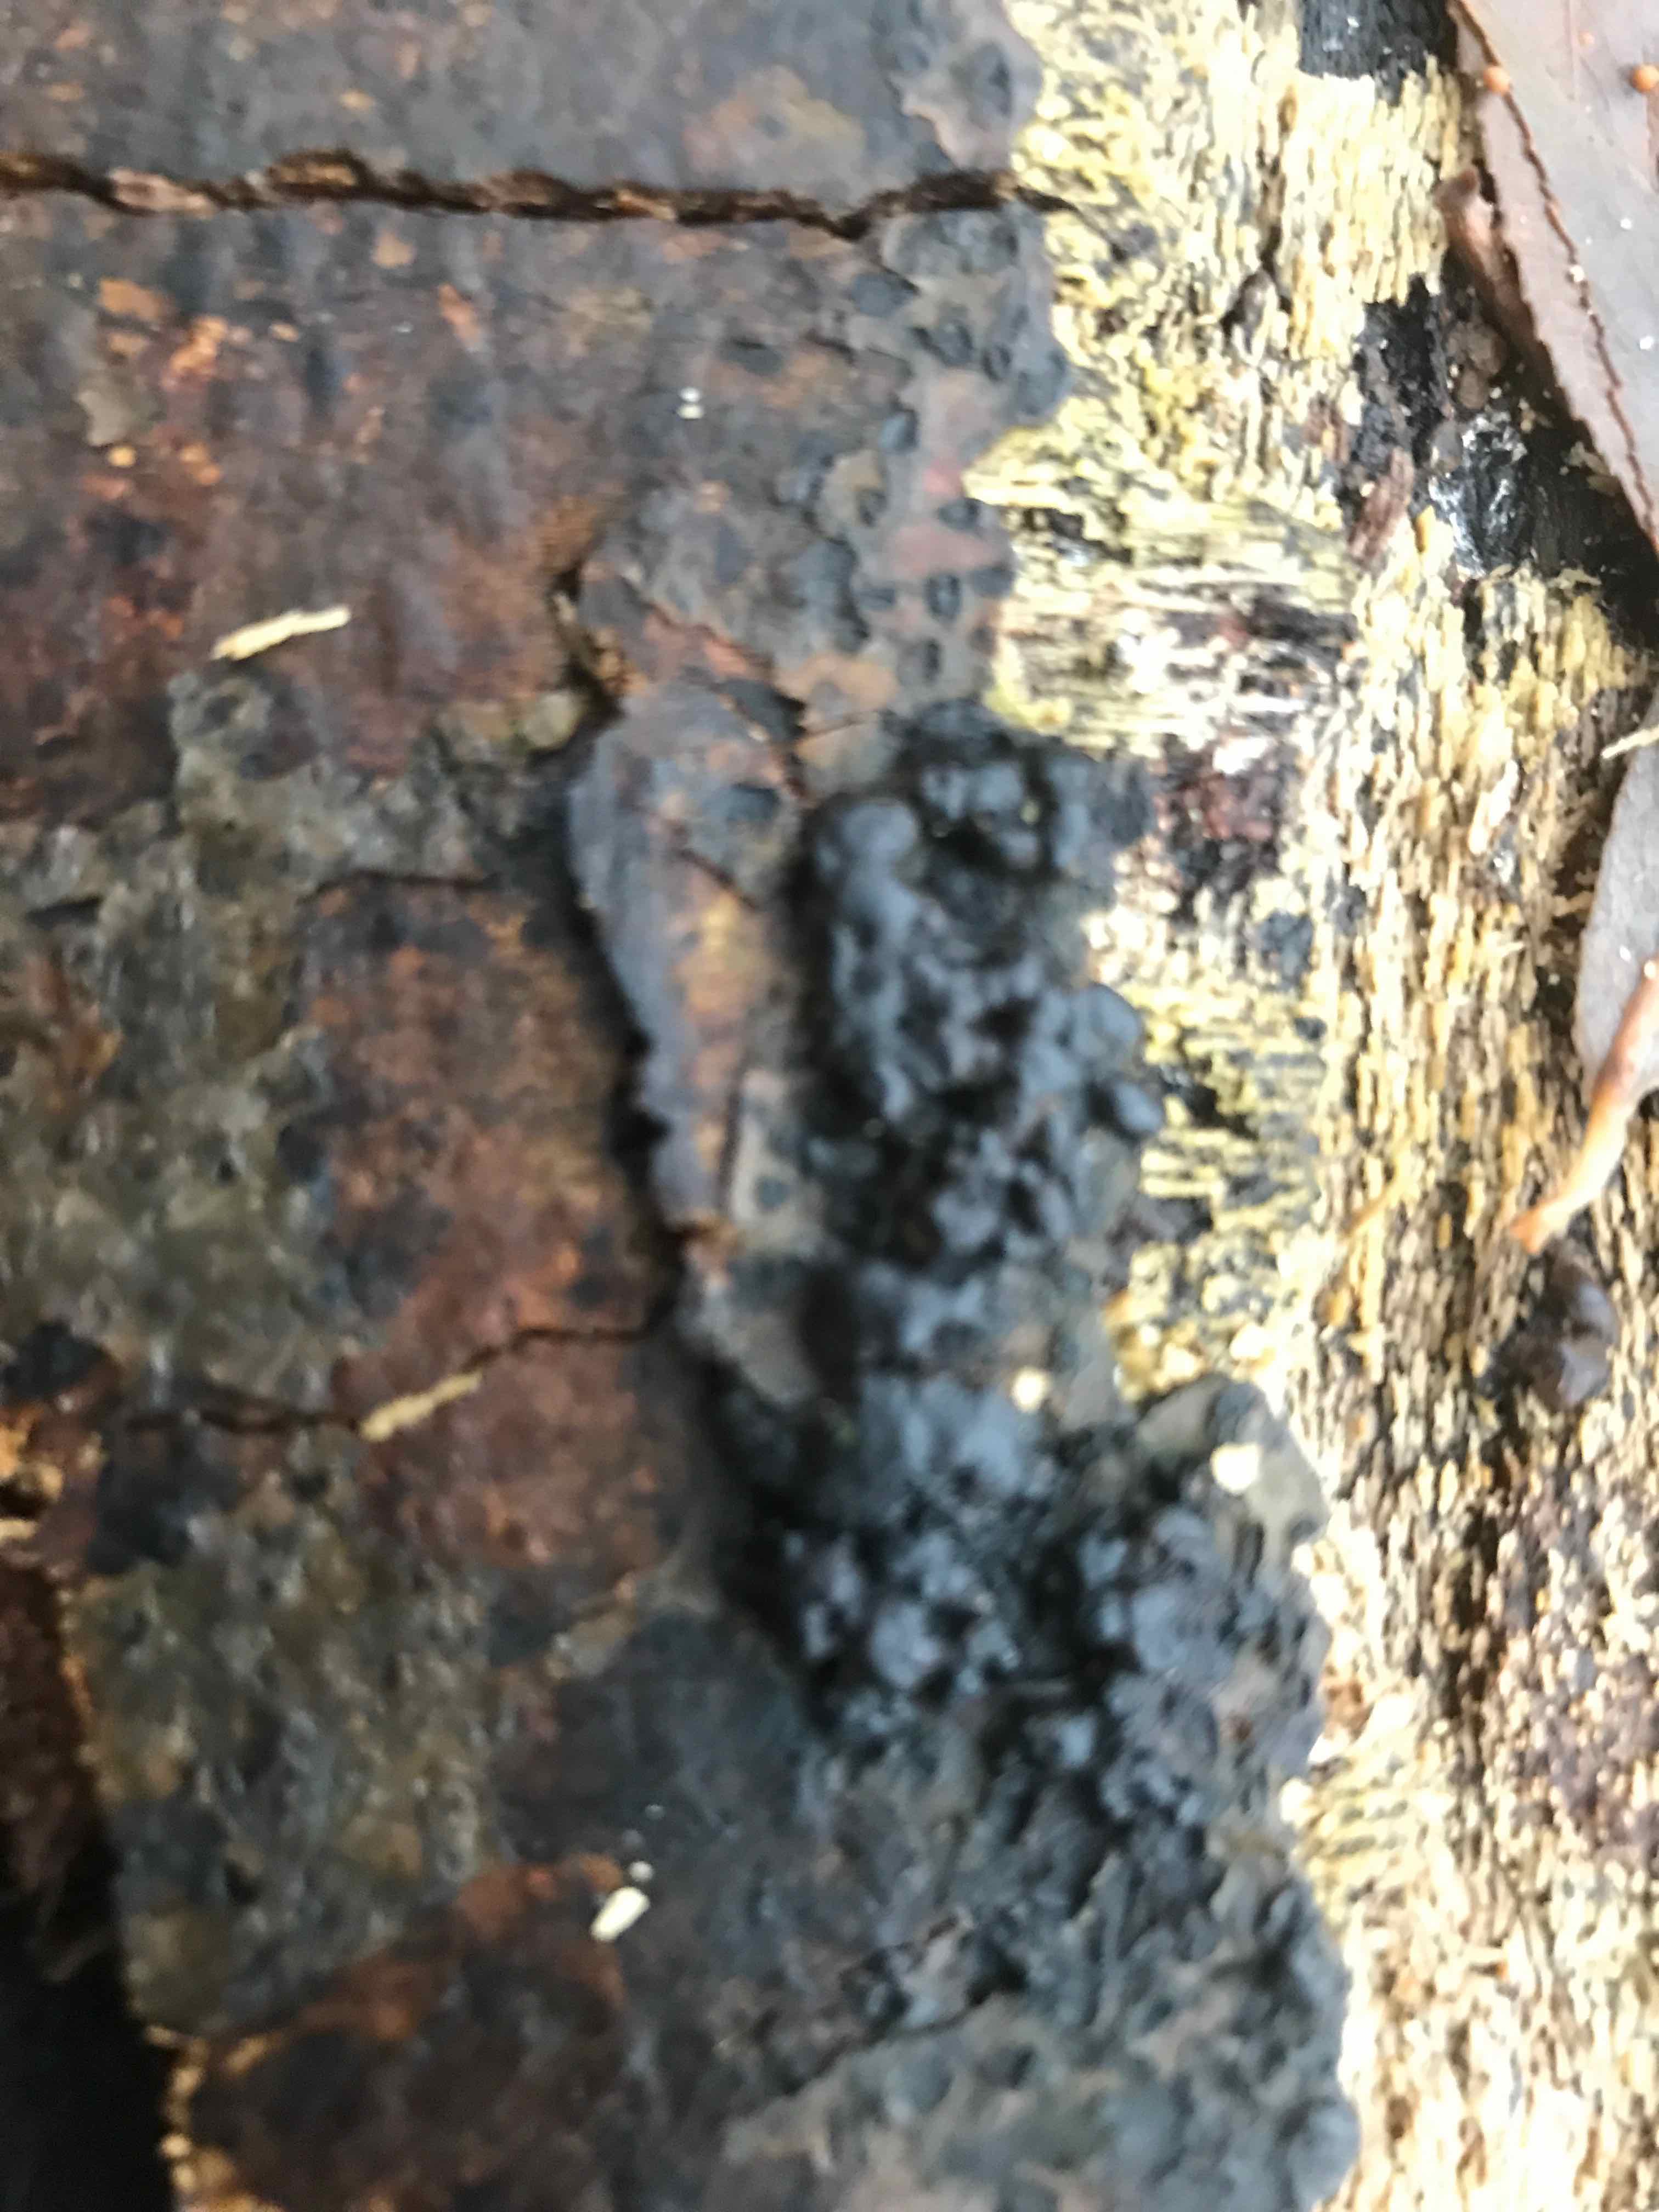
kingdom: Fungi
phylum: Ascomycota
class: Sordariomycetes
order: Xylariales
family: Hypoxylaceae
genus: Jackrogersella
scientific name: Jackrogersella cohaerens
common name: sammenflydende kulbær
